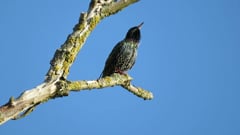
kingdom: Animalia
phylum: Chordata
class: Aves
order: Passeriformes
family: Sturnidae
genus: Sturnus
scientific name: Sturnus vulgaris
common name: Common starling
